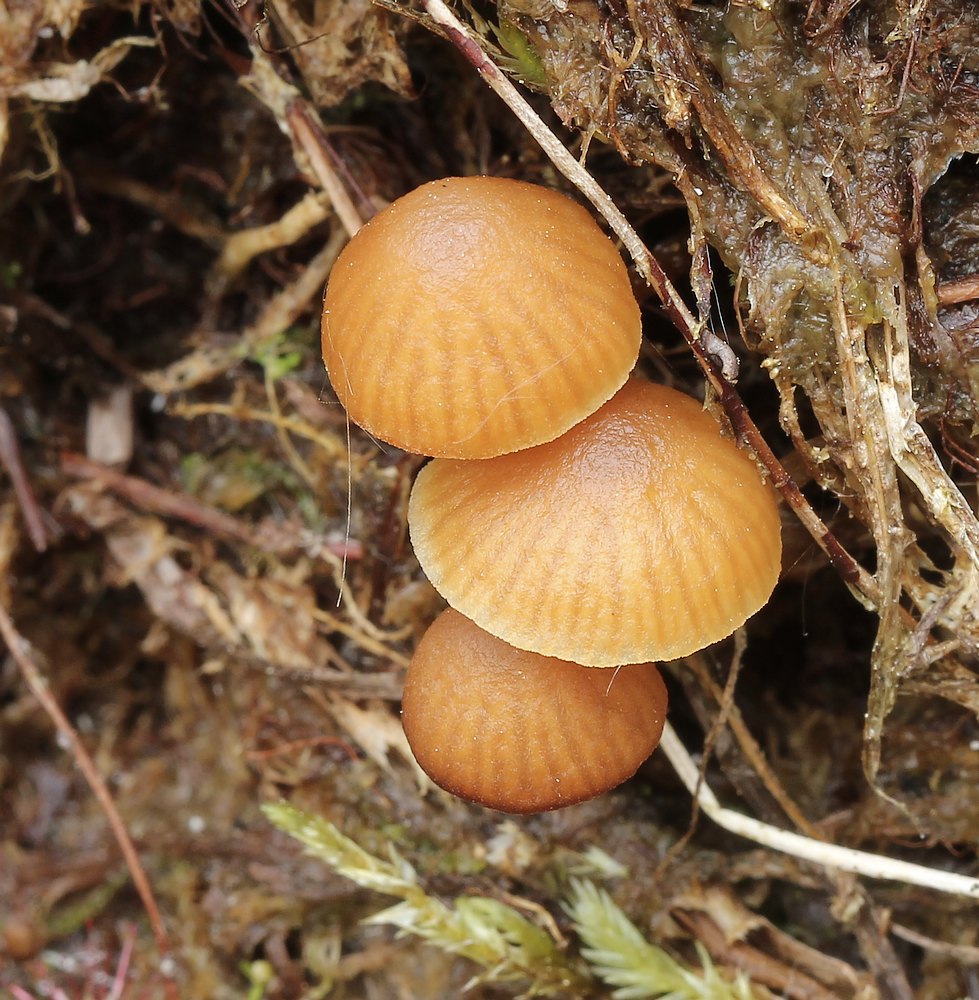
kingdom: Fungi
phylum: Basidiomycota
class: Agaricomycetes
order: Agaricales
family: Hymenogastraceae
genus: Galerina
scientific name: Galerina
